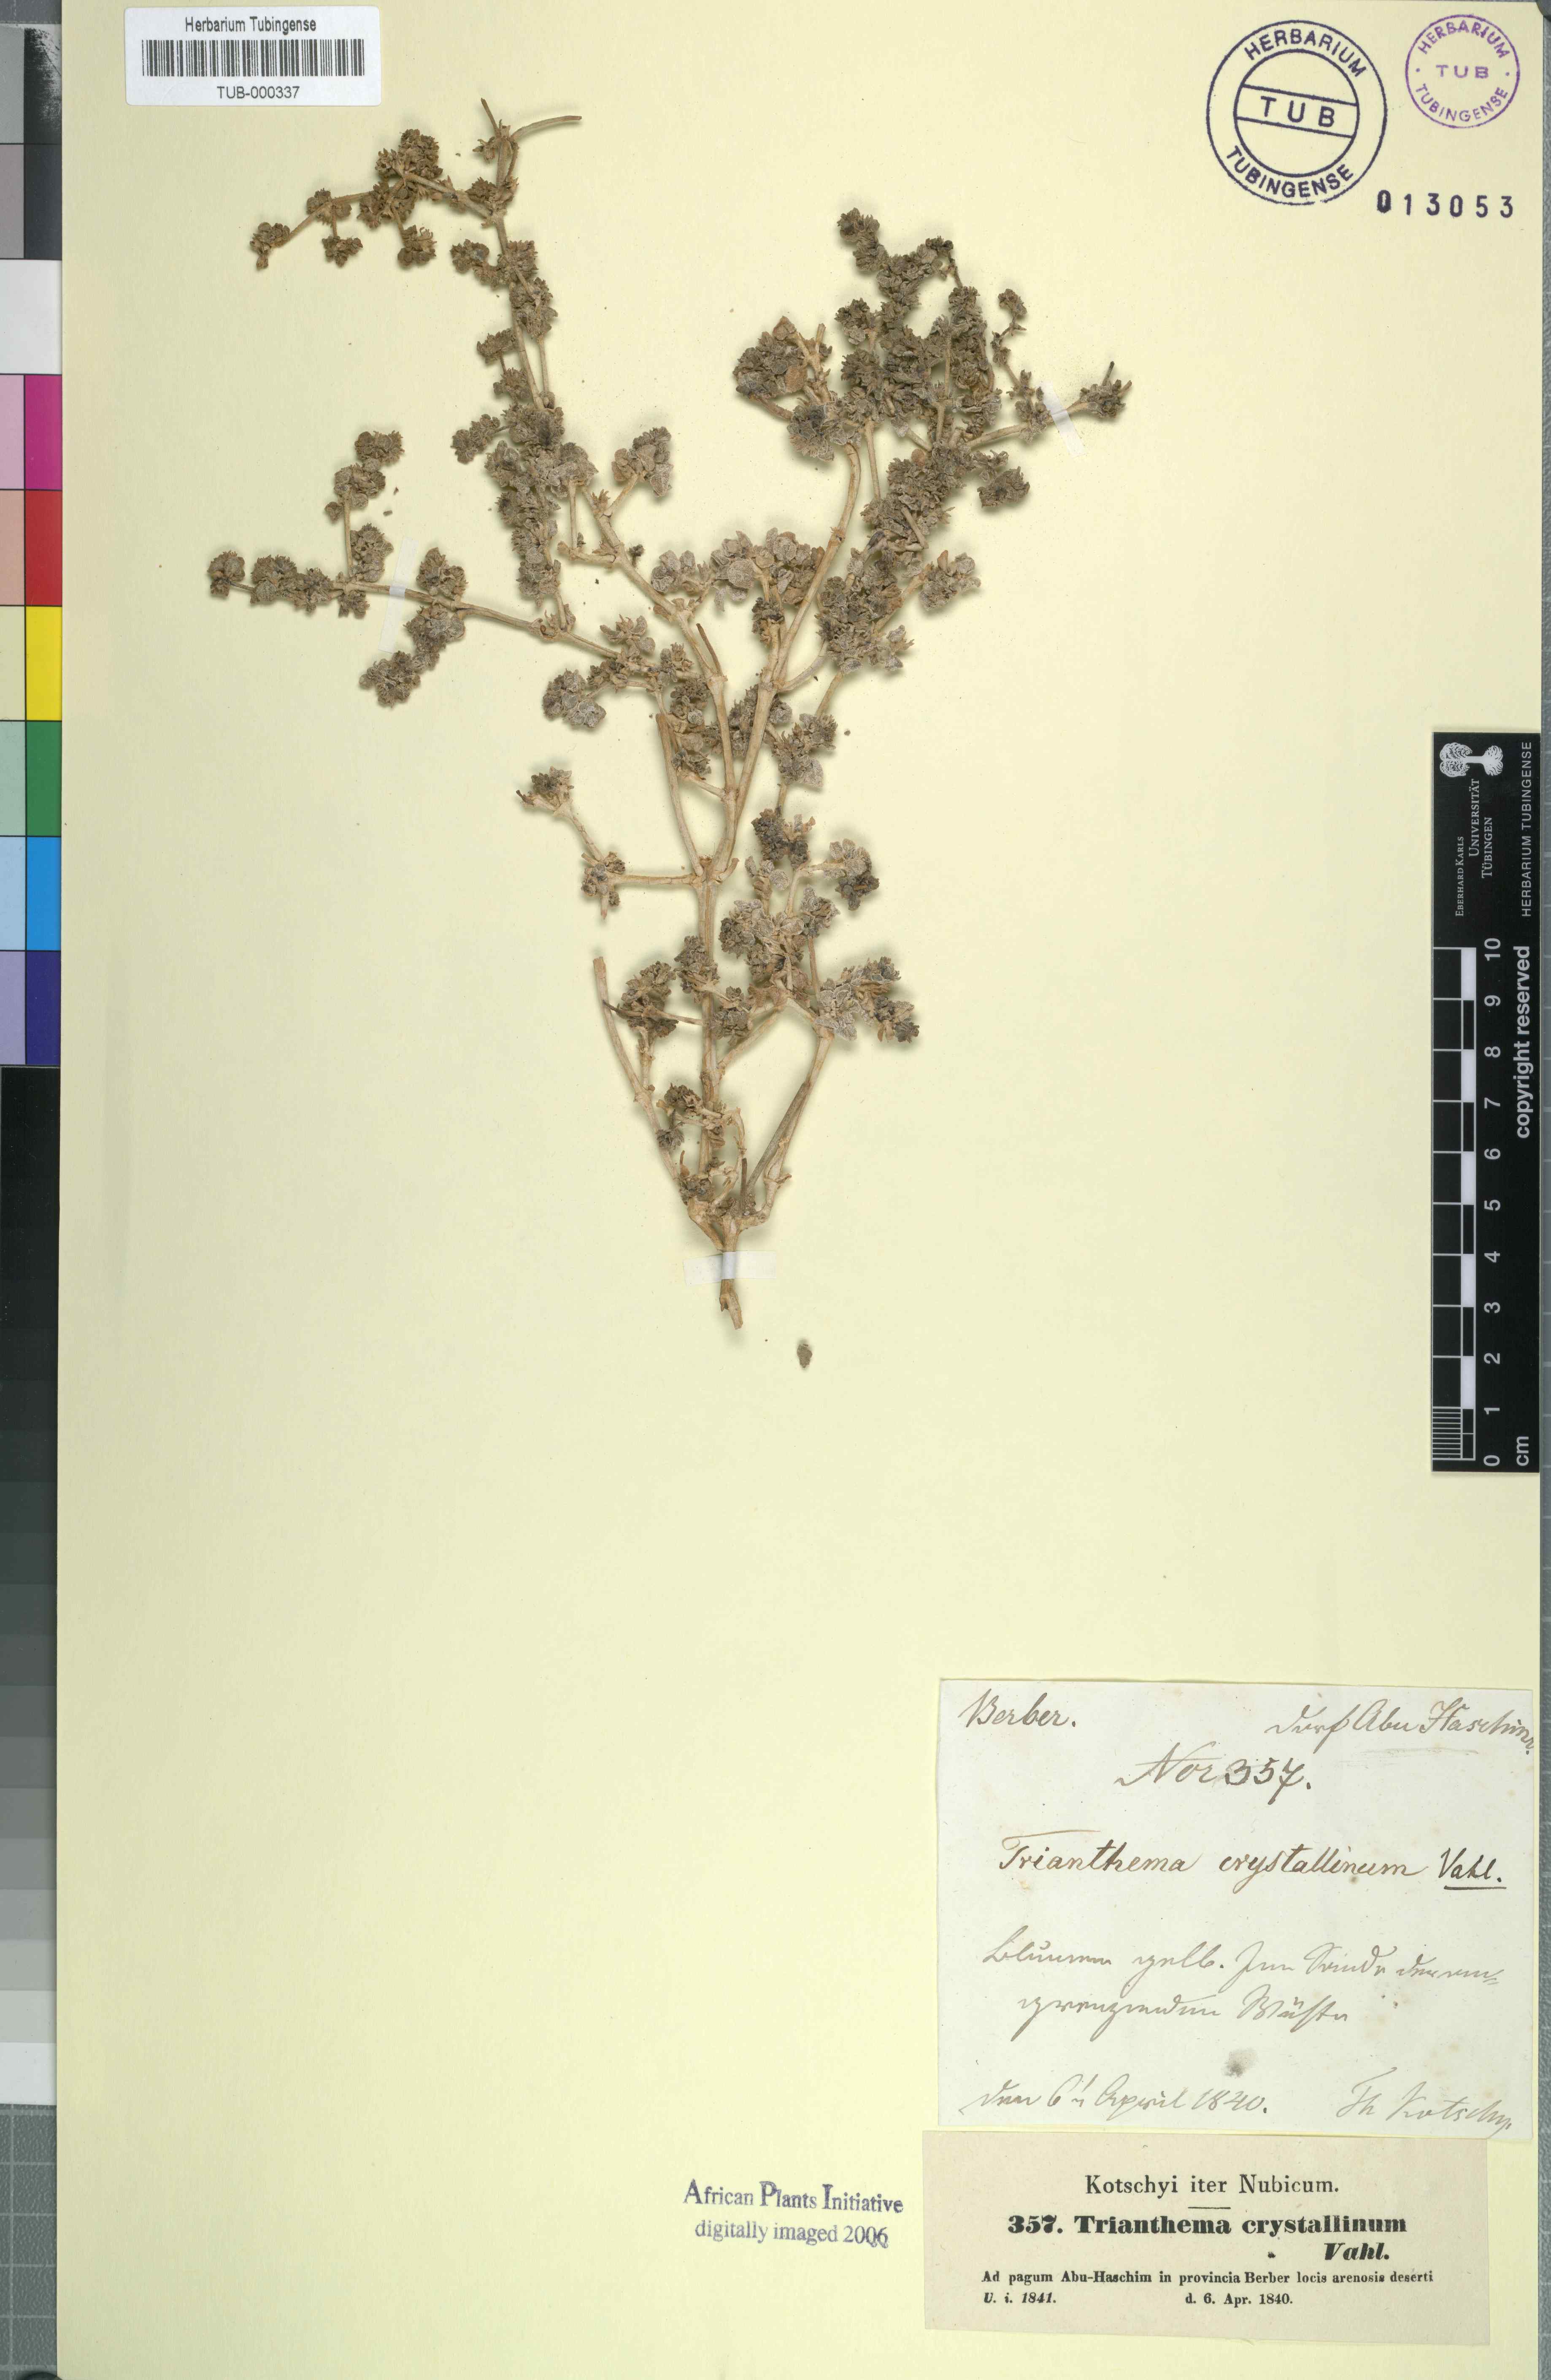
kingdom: Plantae
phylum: Tracheophyta
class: Magnoliopsida
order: Caryophyllales
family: Aizoaceae
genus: Trianthema
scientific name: Trianthema crystallinum
